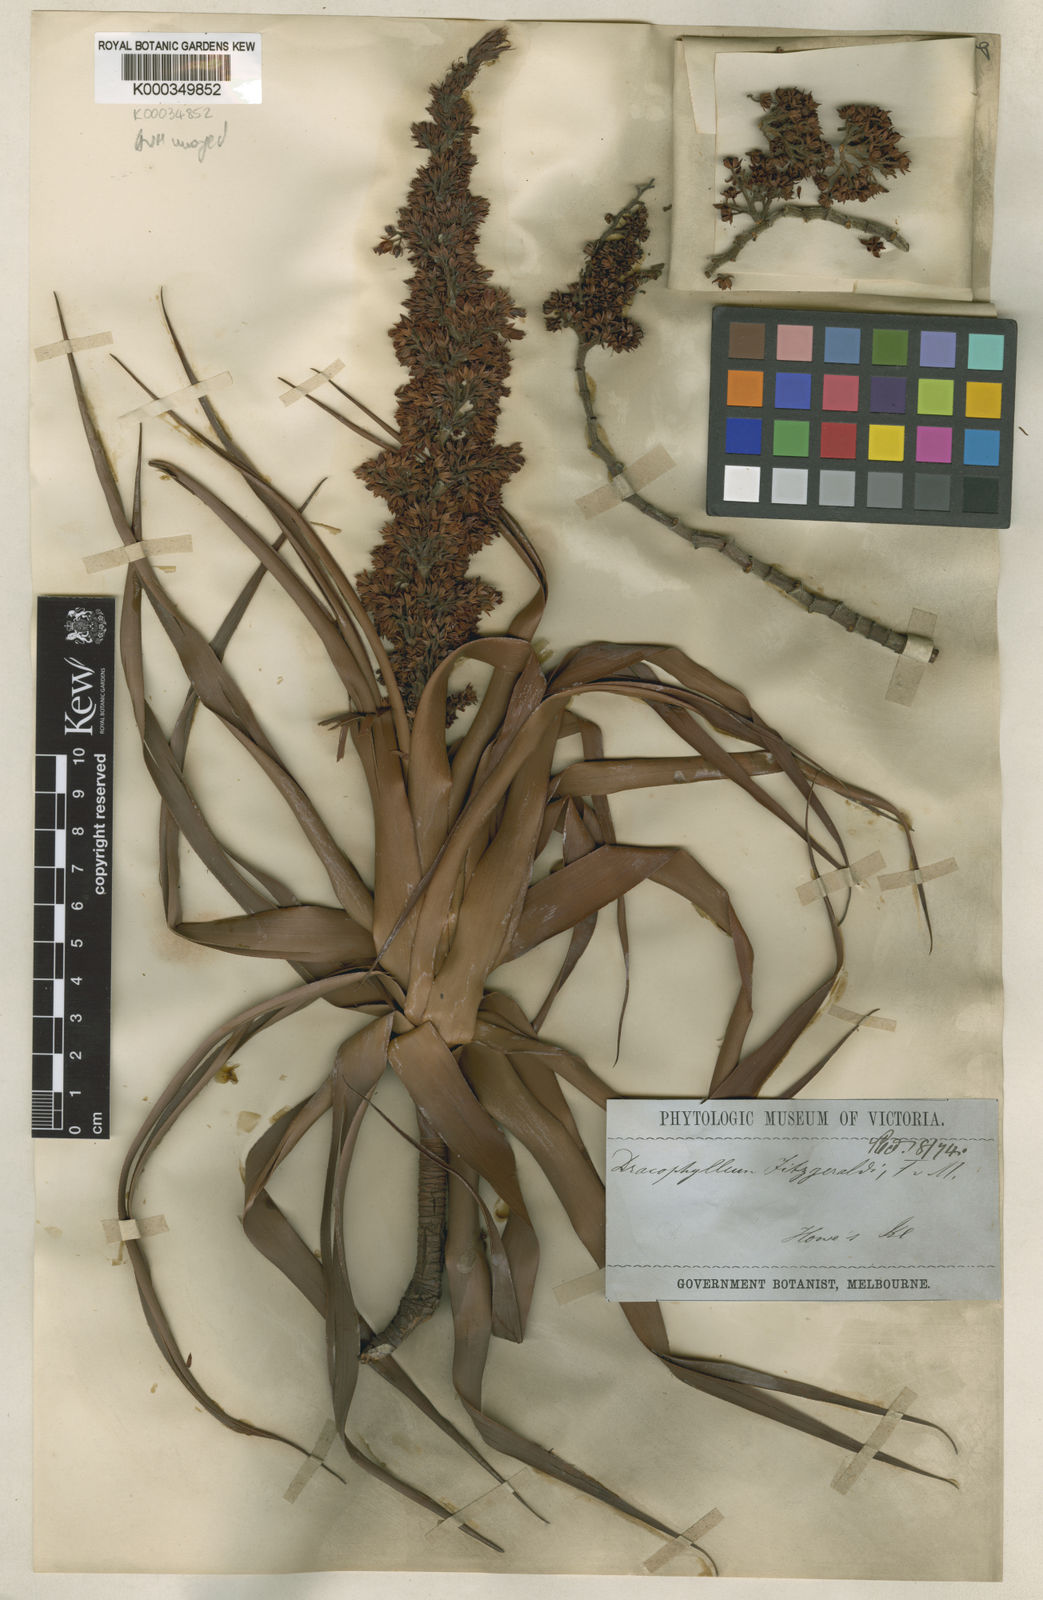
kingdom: Plantae
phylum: Tracheophyta
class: Magnoliopsida
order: Ericales
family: Ericaceae
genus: Dracophyllum
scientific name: Dracophyllum fitzgeraldii
